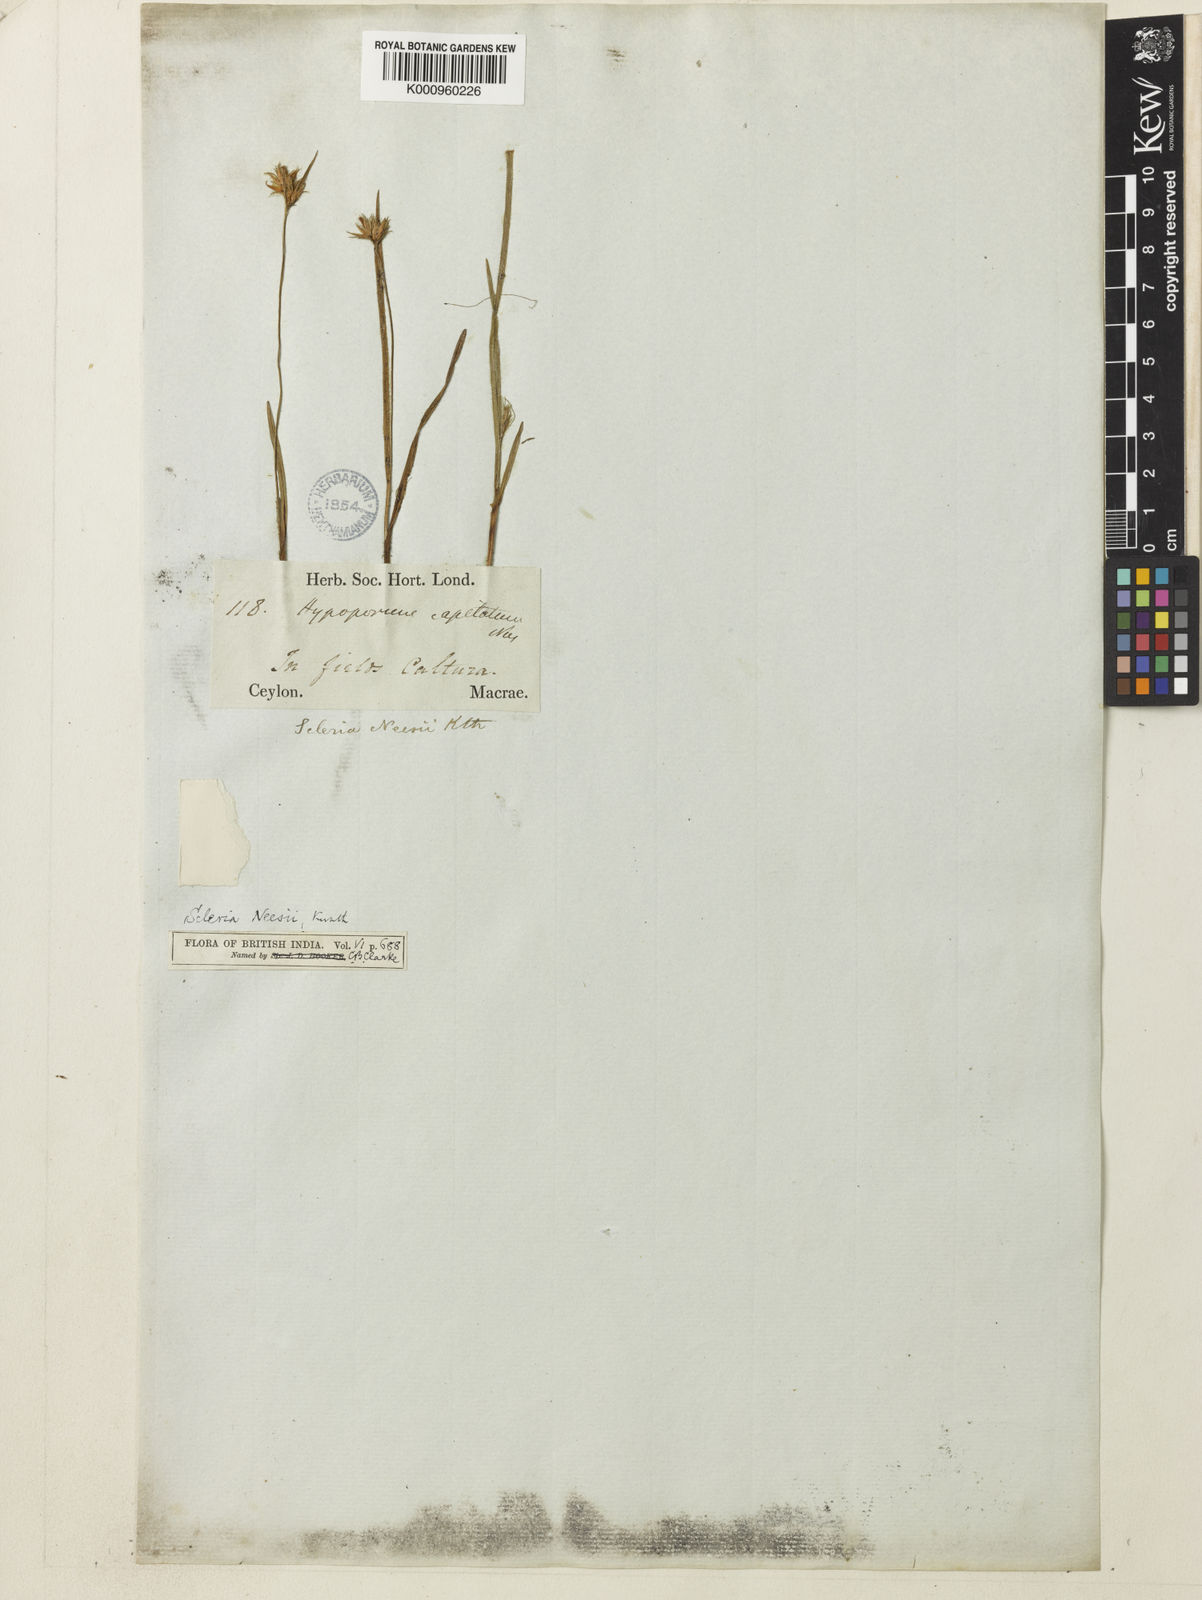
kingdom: Plantae
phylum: Tracheophyta
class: Liliopsida
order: Poales
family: Cyperaceae
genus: Scleria
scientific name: Scleria neesii
